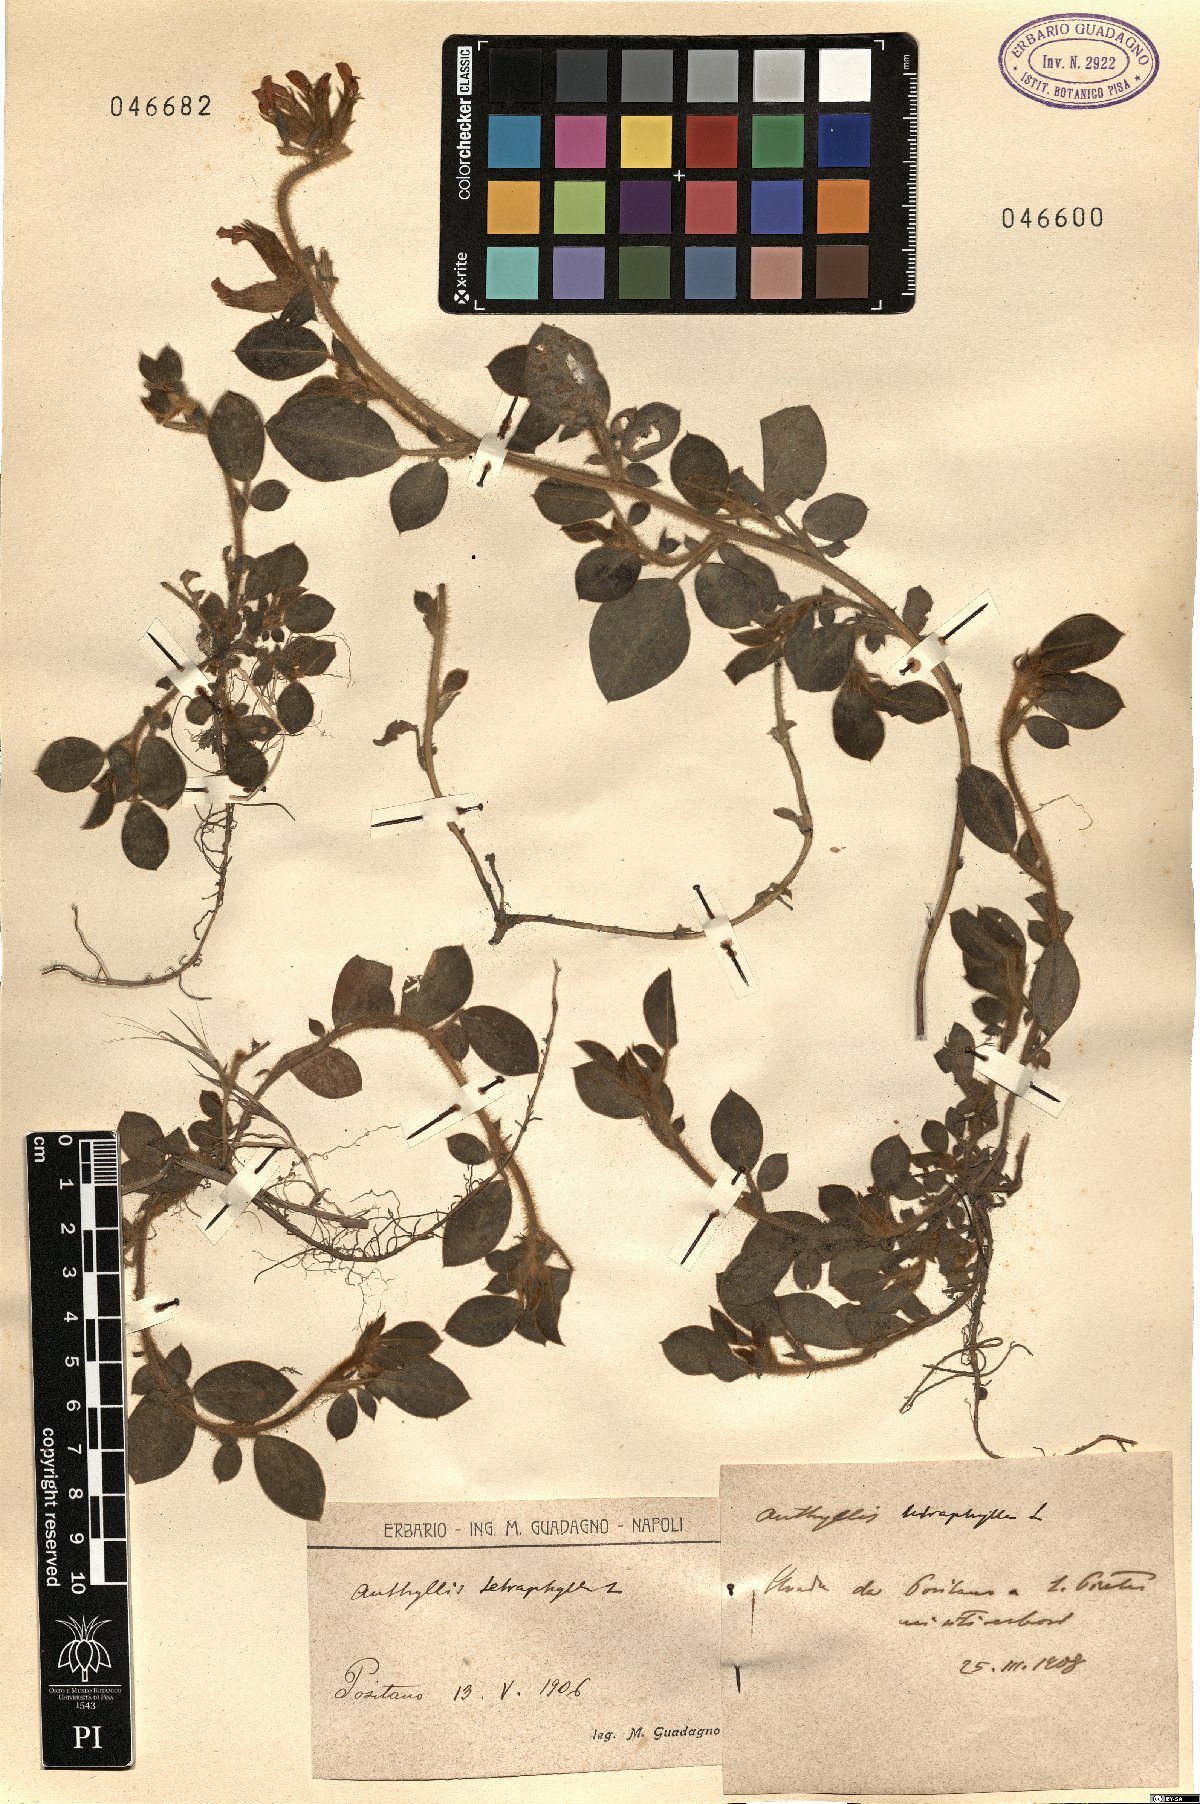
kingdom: Plantae
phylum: Tracheophyta
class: Magnoliopsida
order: Fabales
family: Fabaceae
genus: Tripodion
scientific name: Tripodion tetraphyllum
